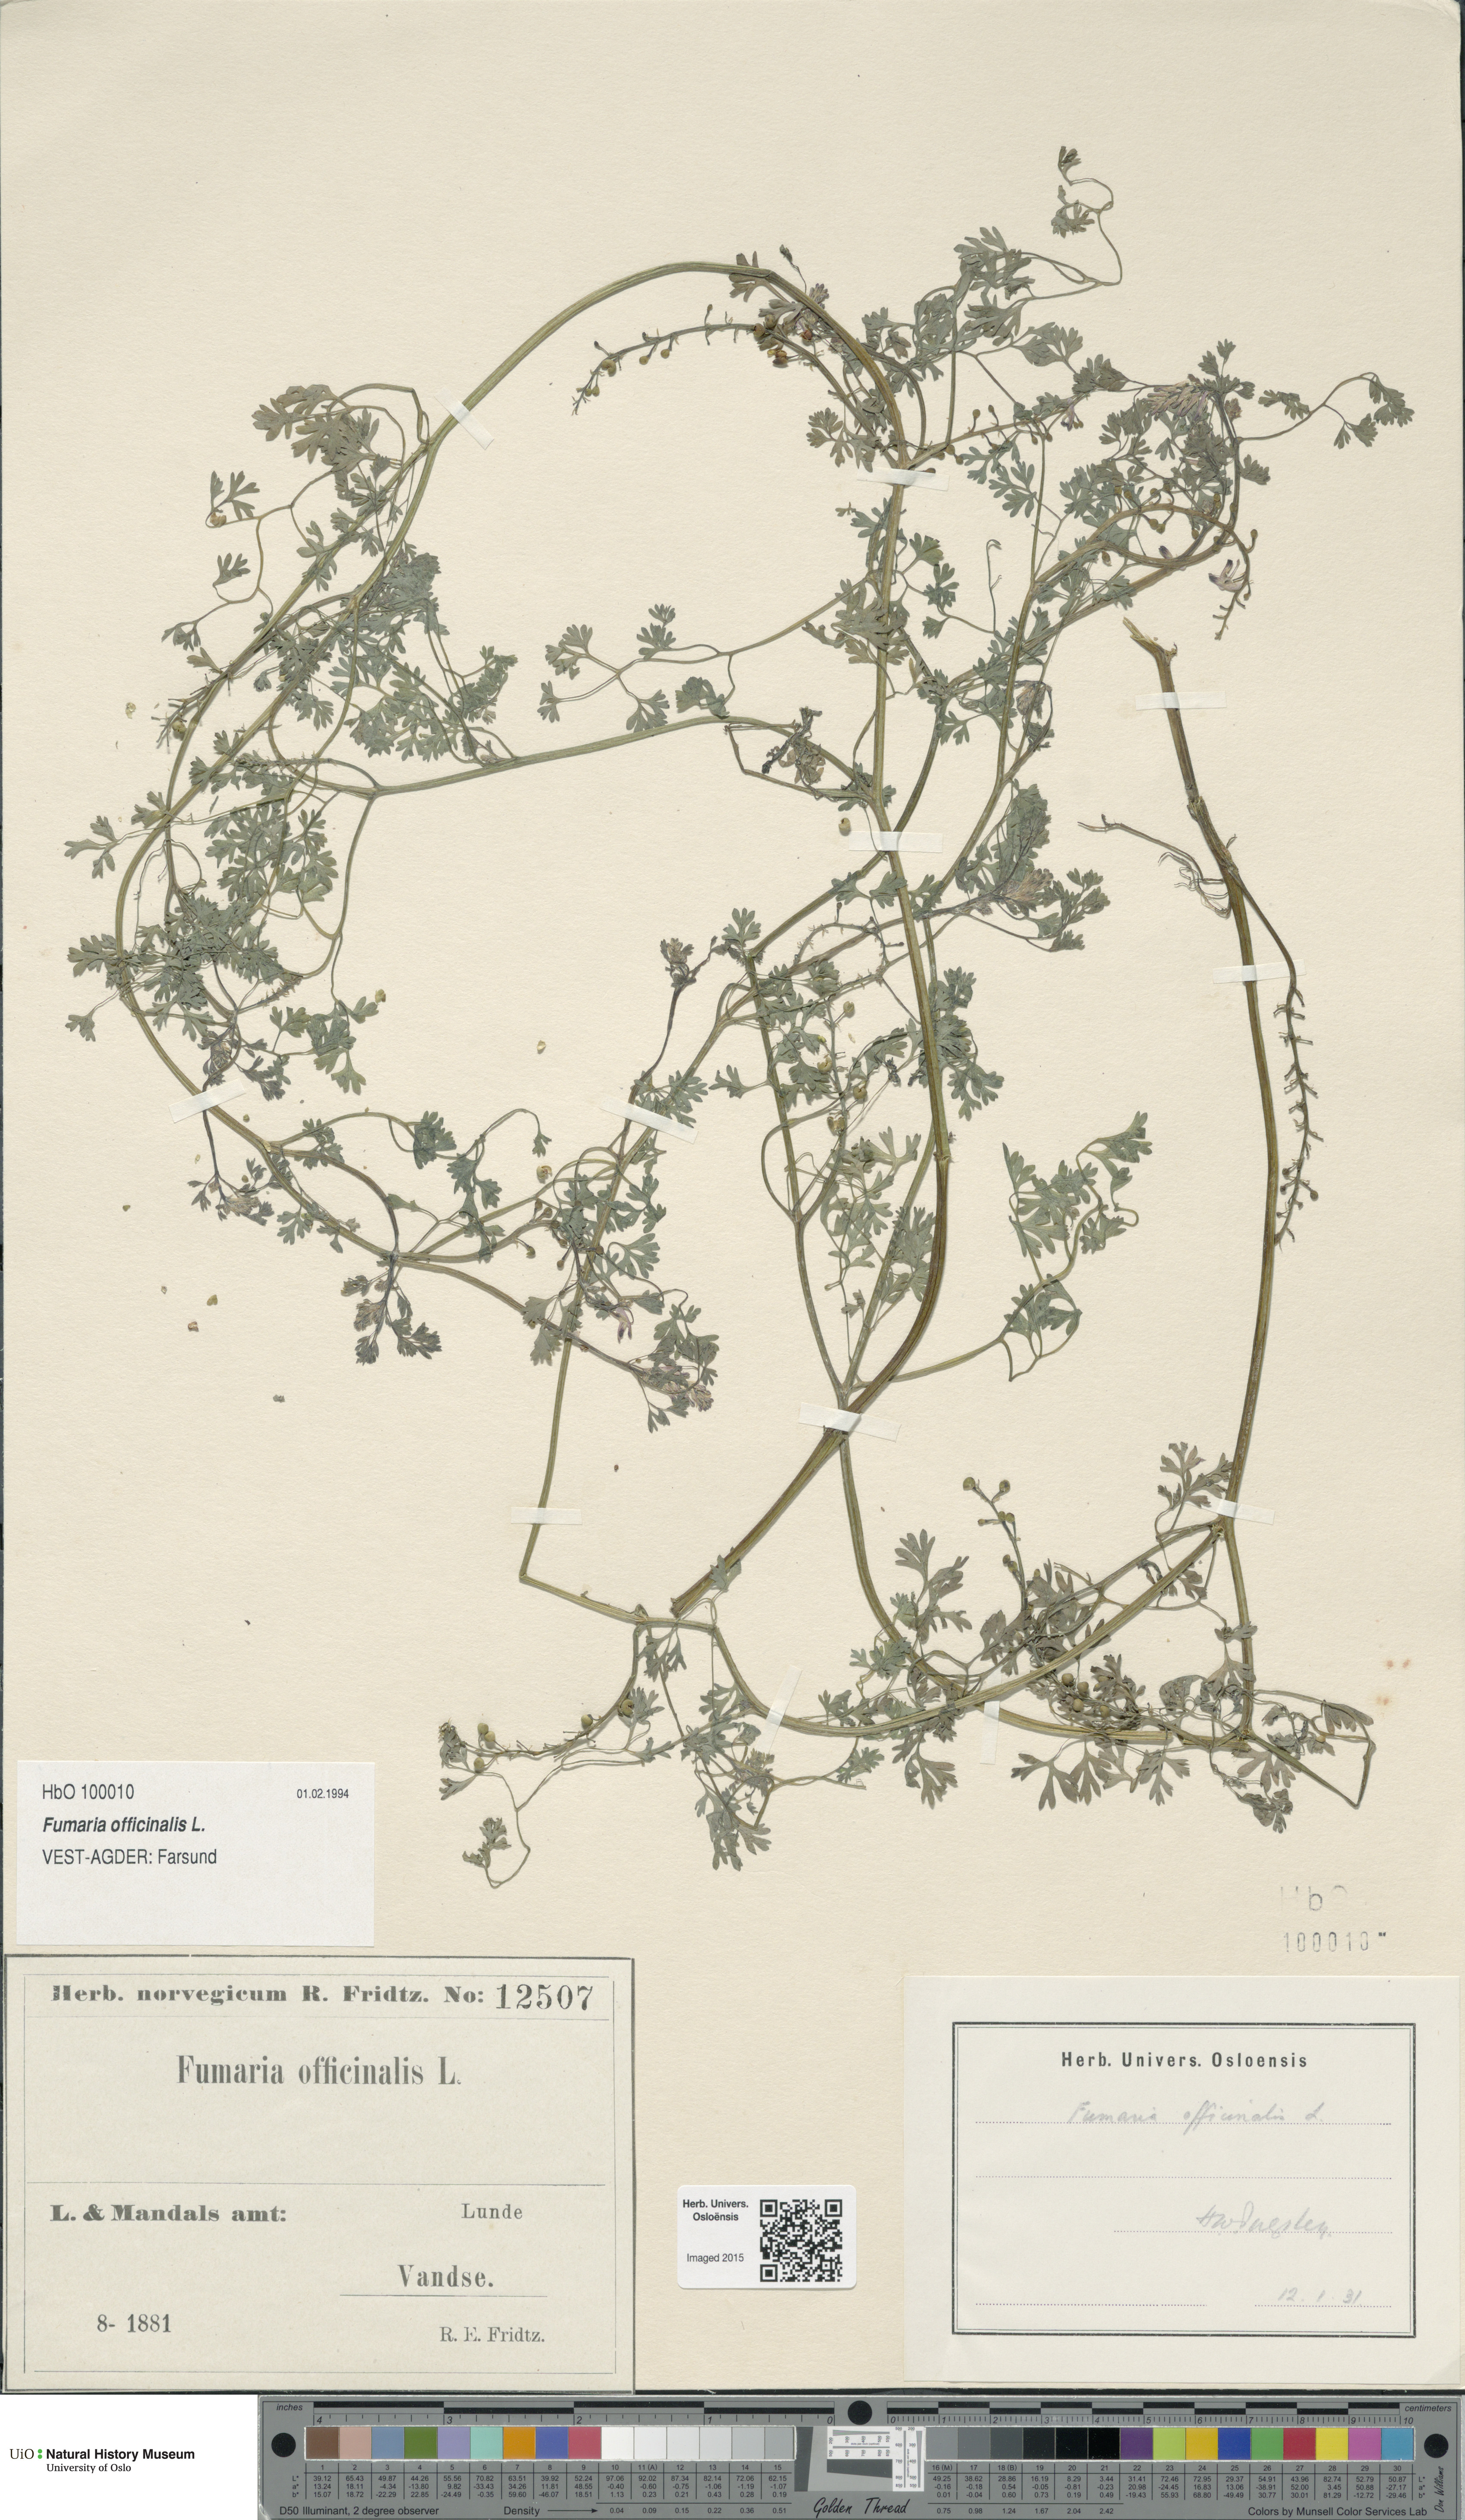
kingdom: Plantae
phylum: Tracheophyta
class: Magnoliopsida
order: Ranunculales
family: Papaveraceae
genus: Fumaria
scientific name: Fumaria officinalis
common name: Common fumitory
